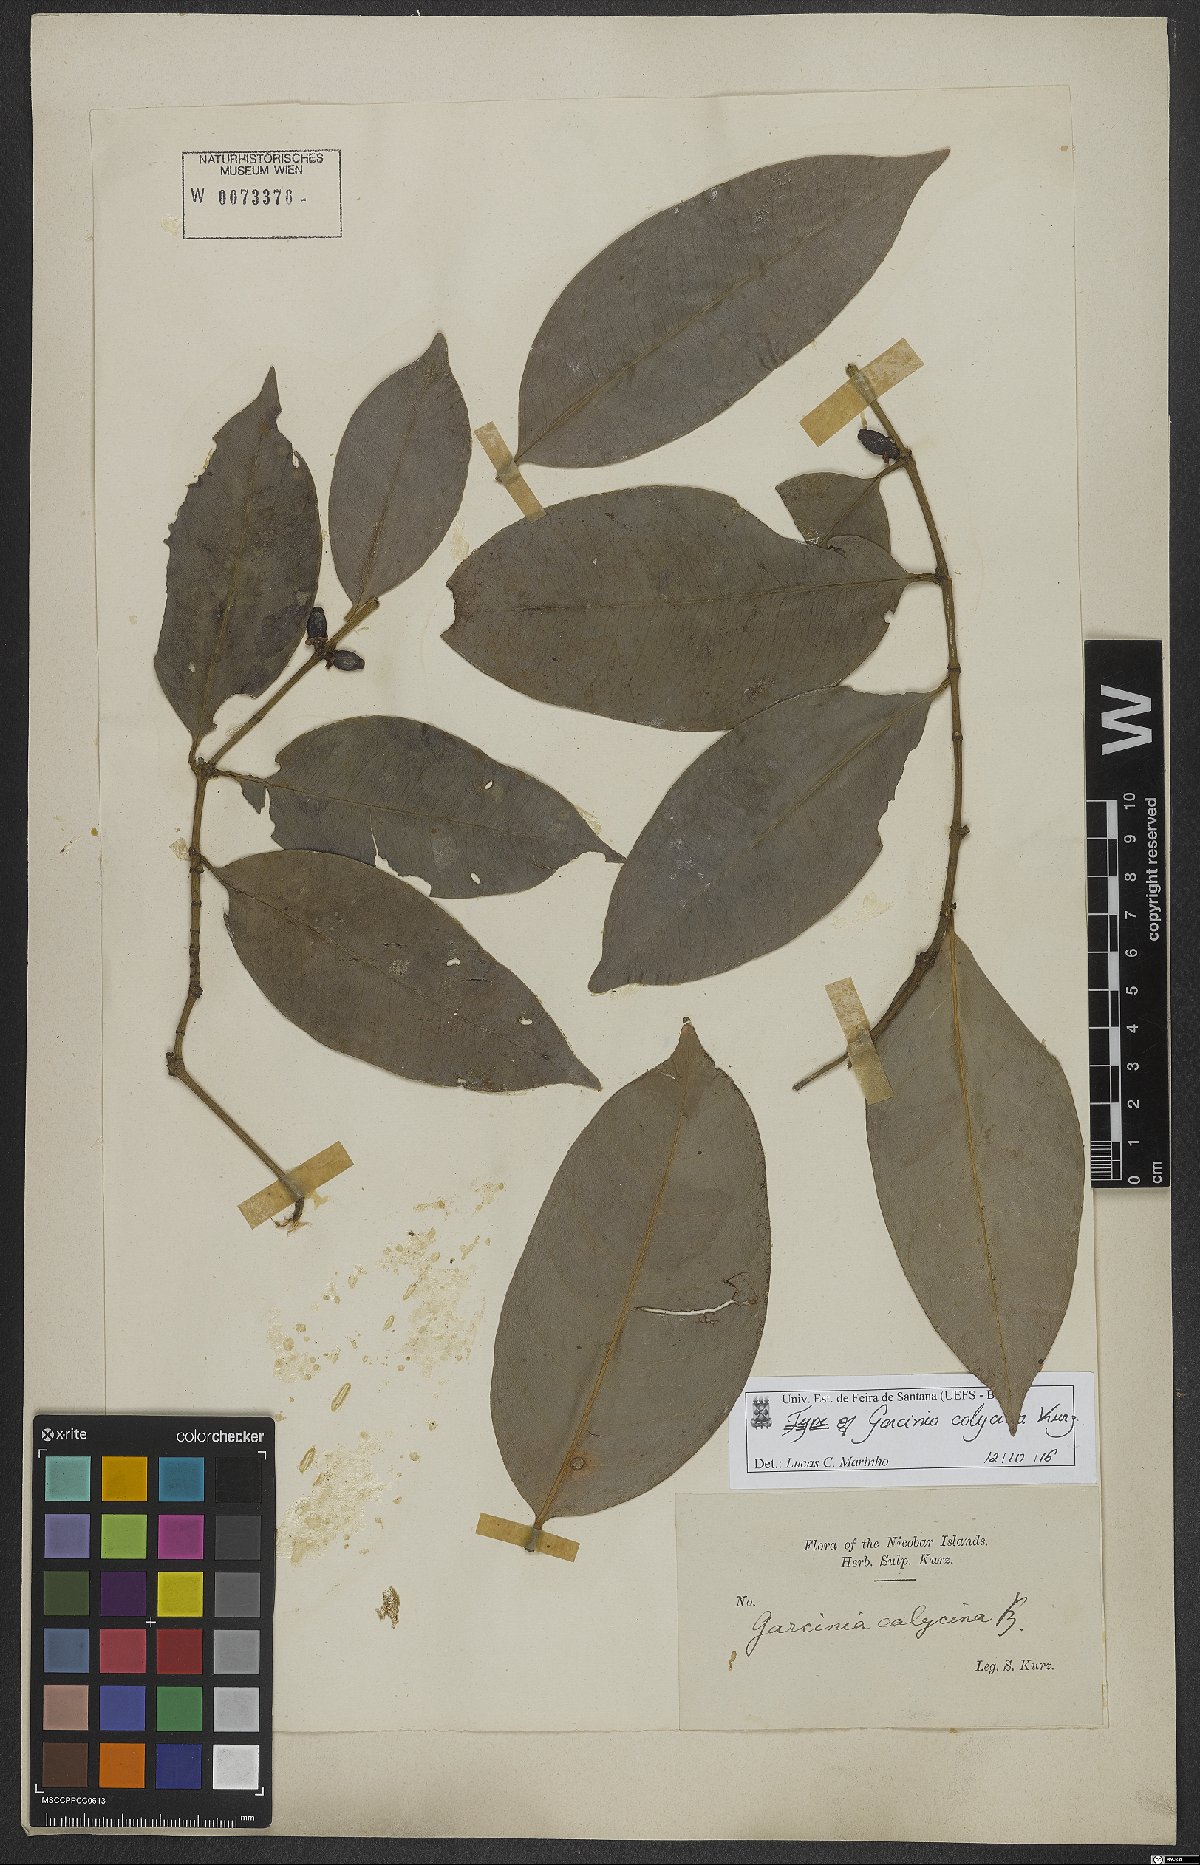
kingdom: Plantae
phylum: Tracheophyta
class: Magnoliopsida
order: Malpighiales
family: Clusiaceae
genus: Garcinia
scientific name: Garcinia calycina
